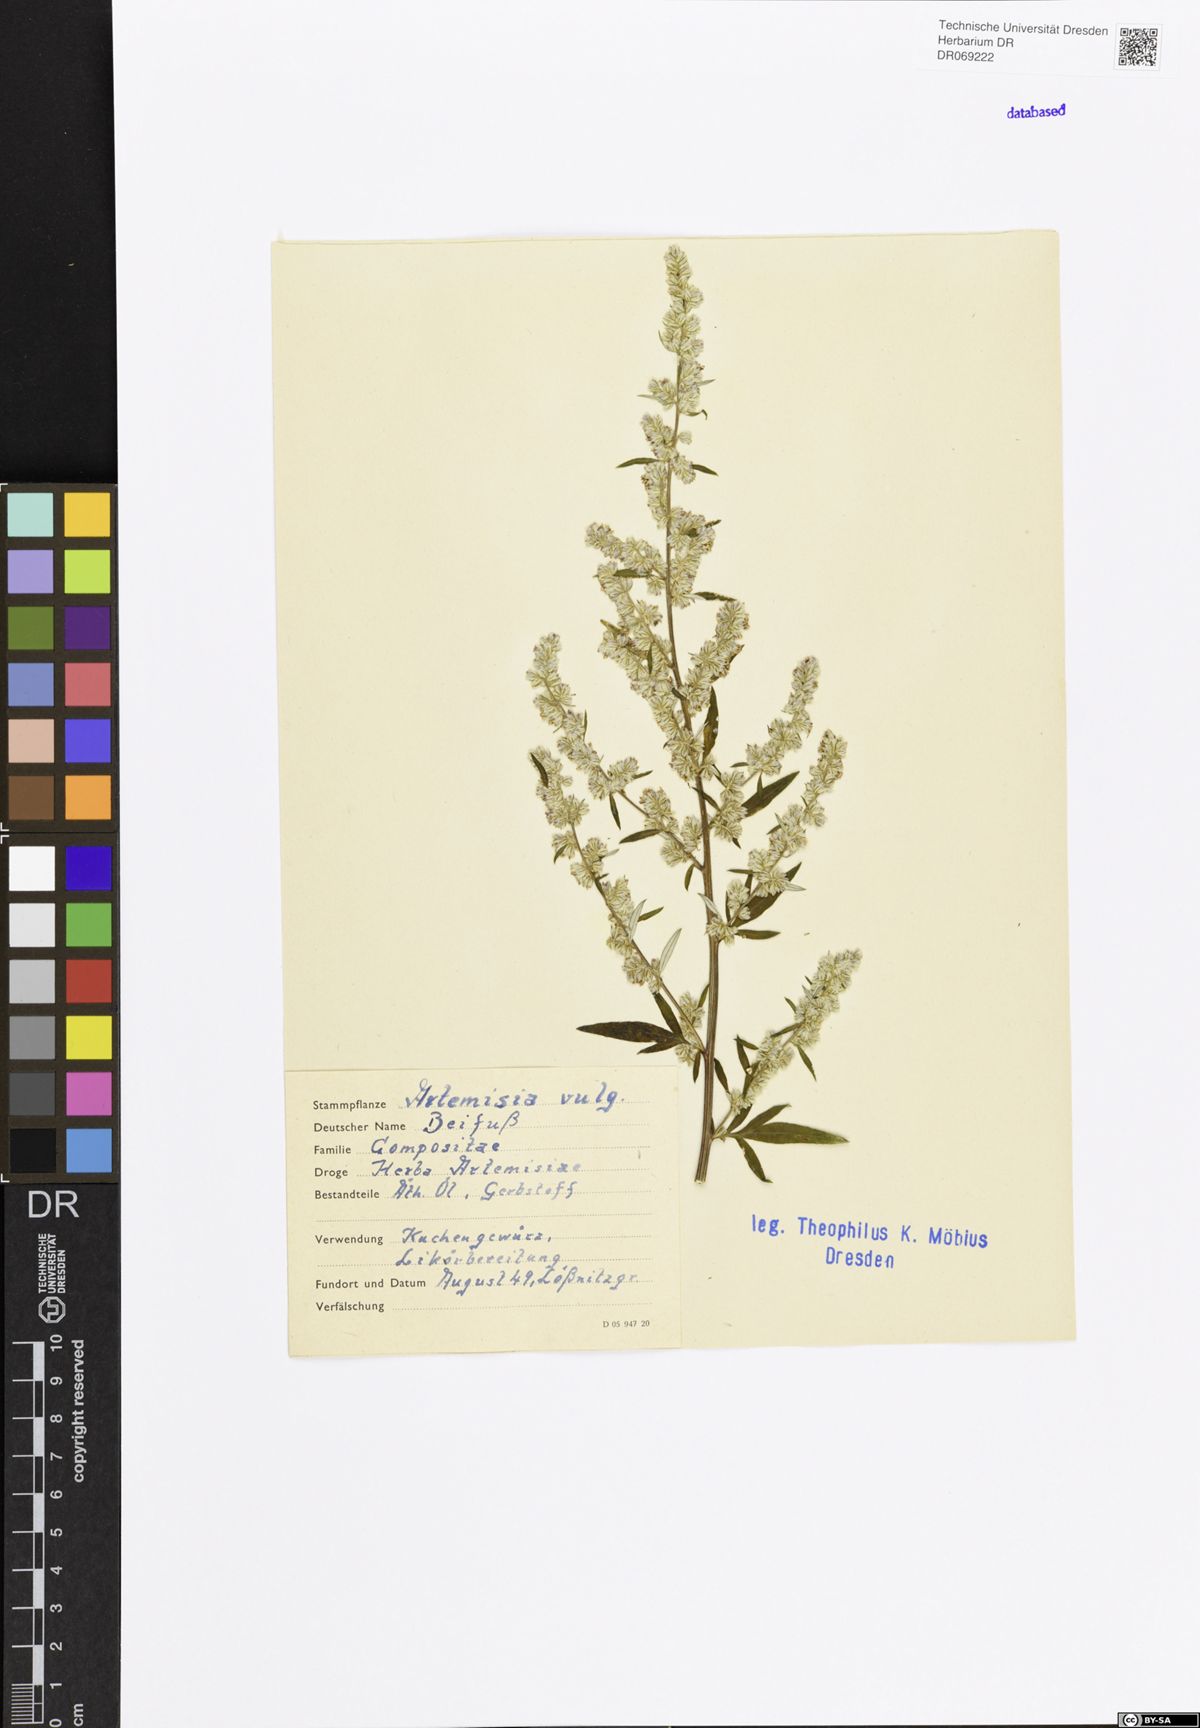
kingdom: Plantae
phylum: Tracheophyta
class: Magnoliopsida
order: Asterales
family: Asteraceae
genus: Artemisia
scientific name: Artemisia vulgaris
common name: Mugwort
